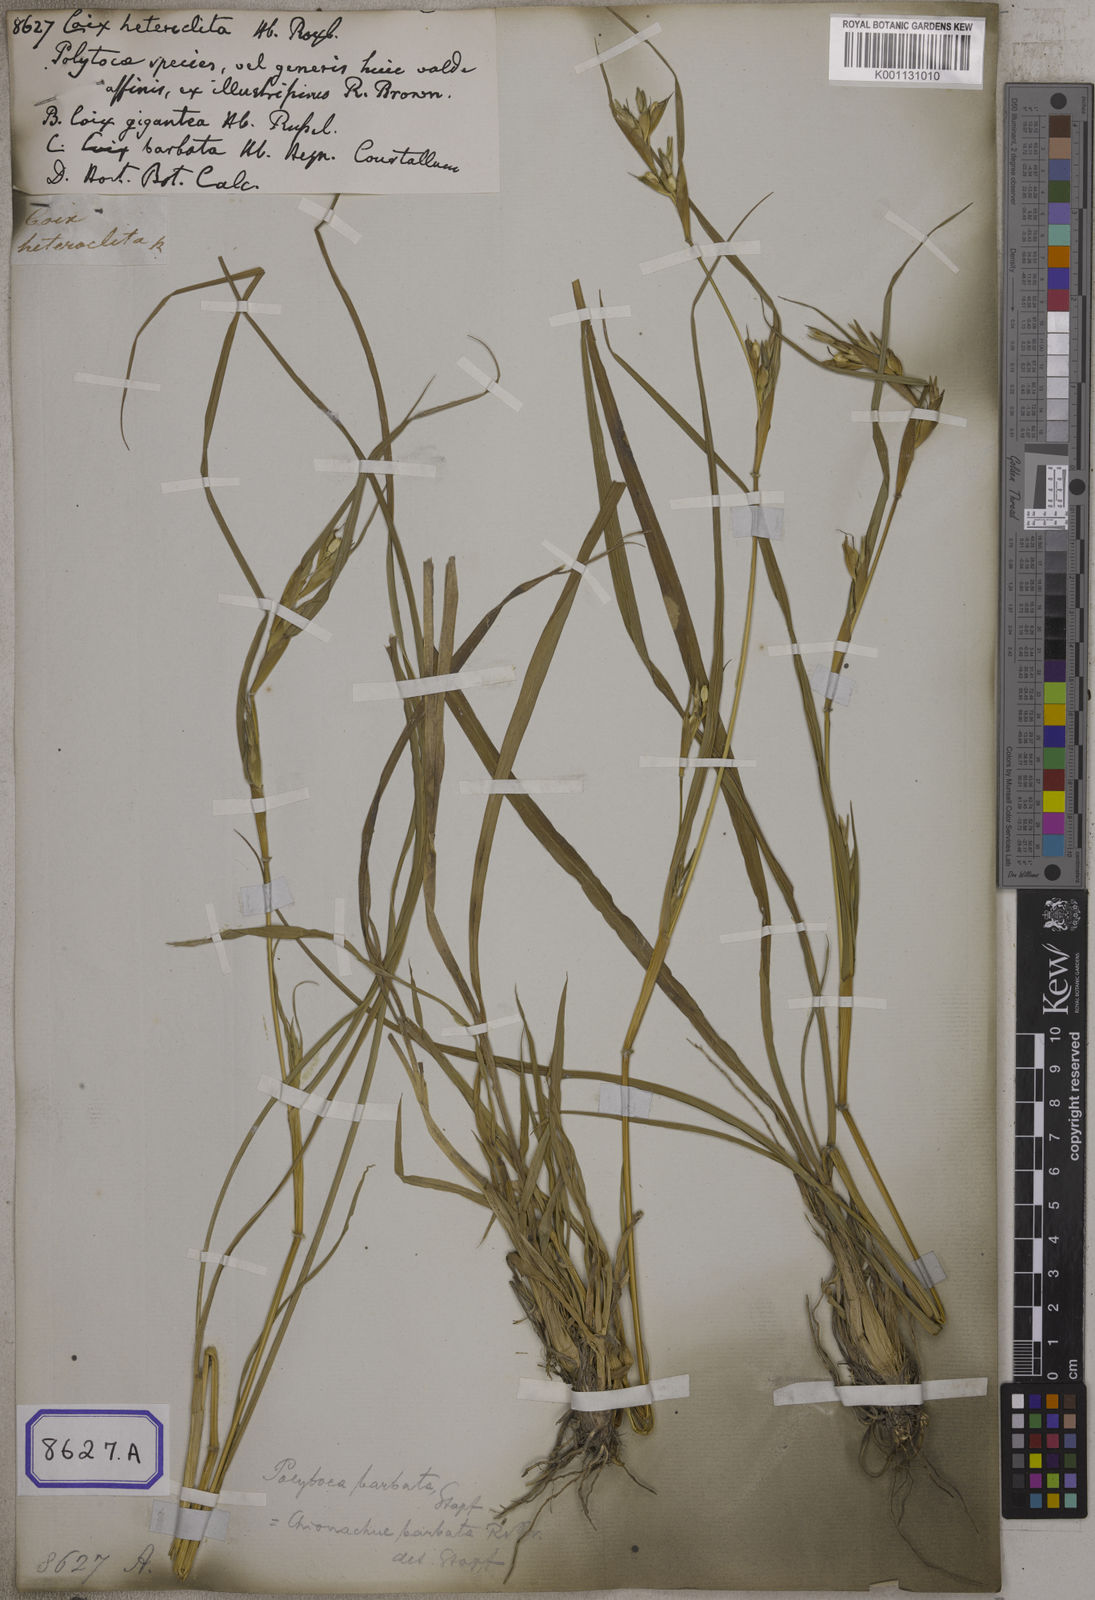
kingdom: Plantae
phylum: Tracheophyta
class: Liliopsida
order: Poales
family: Poaceae
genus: Polytoca
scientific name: Polytoca digitata
